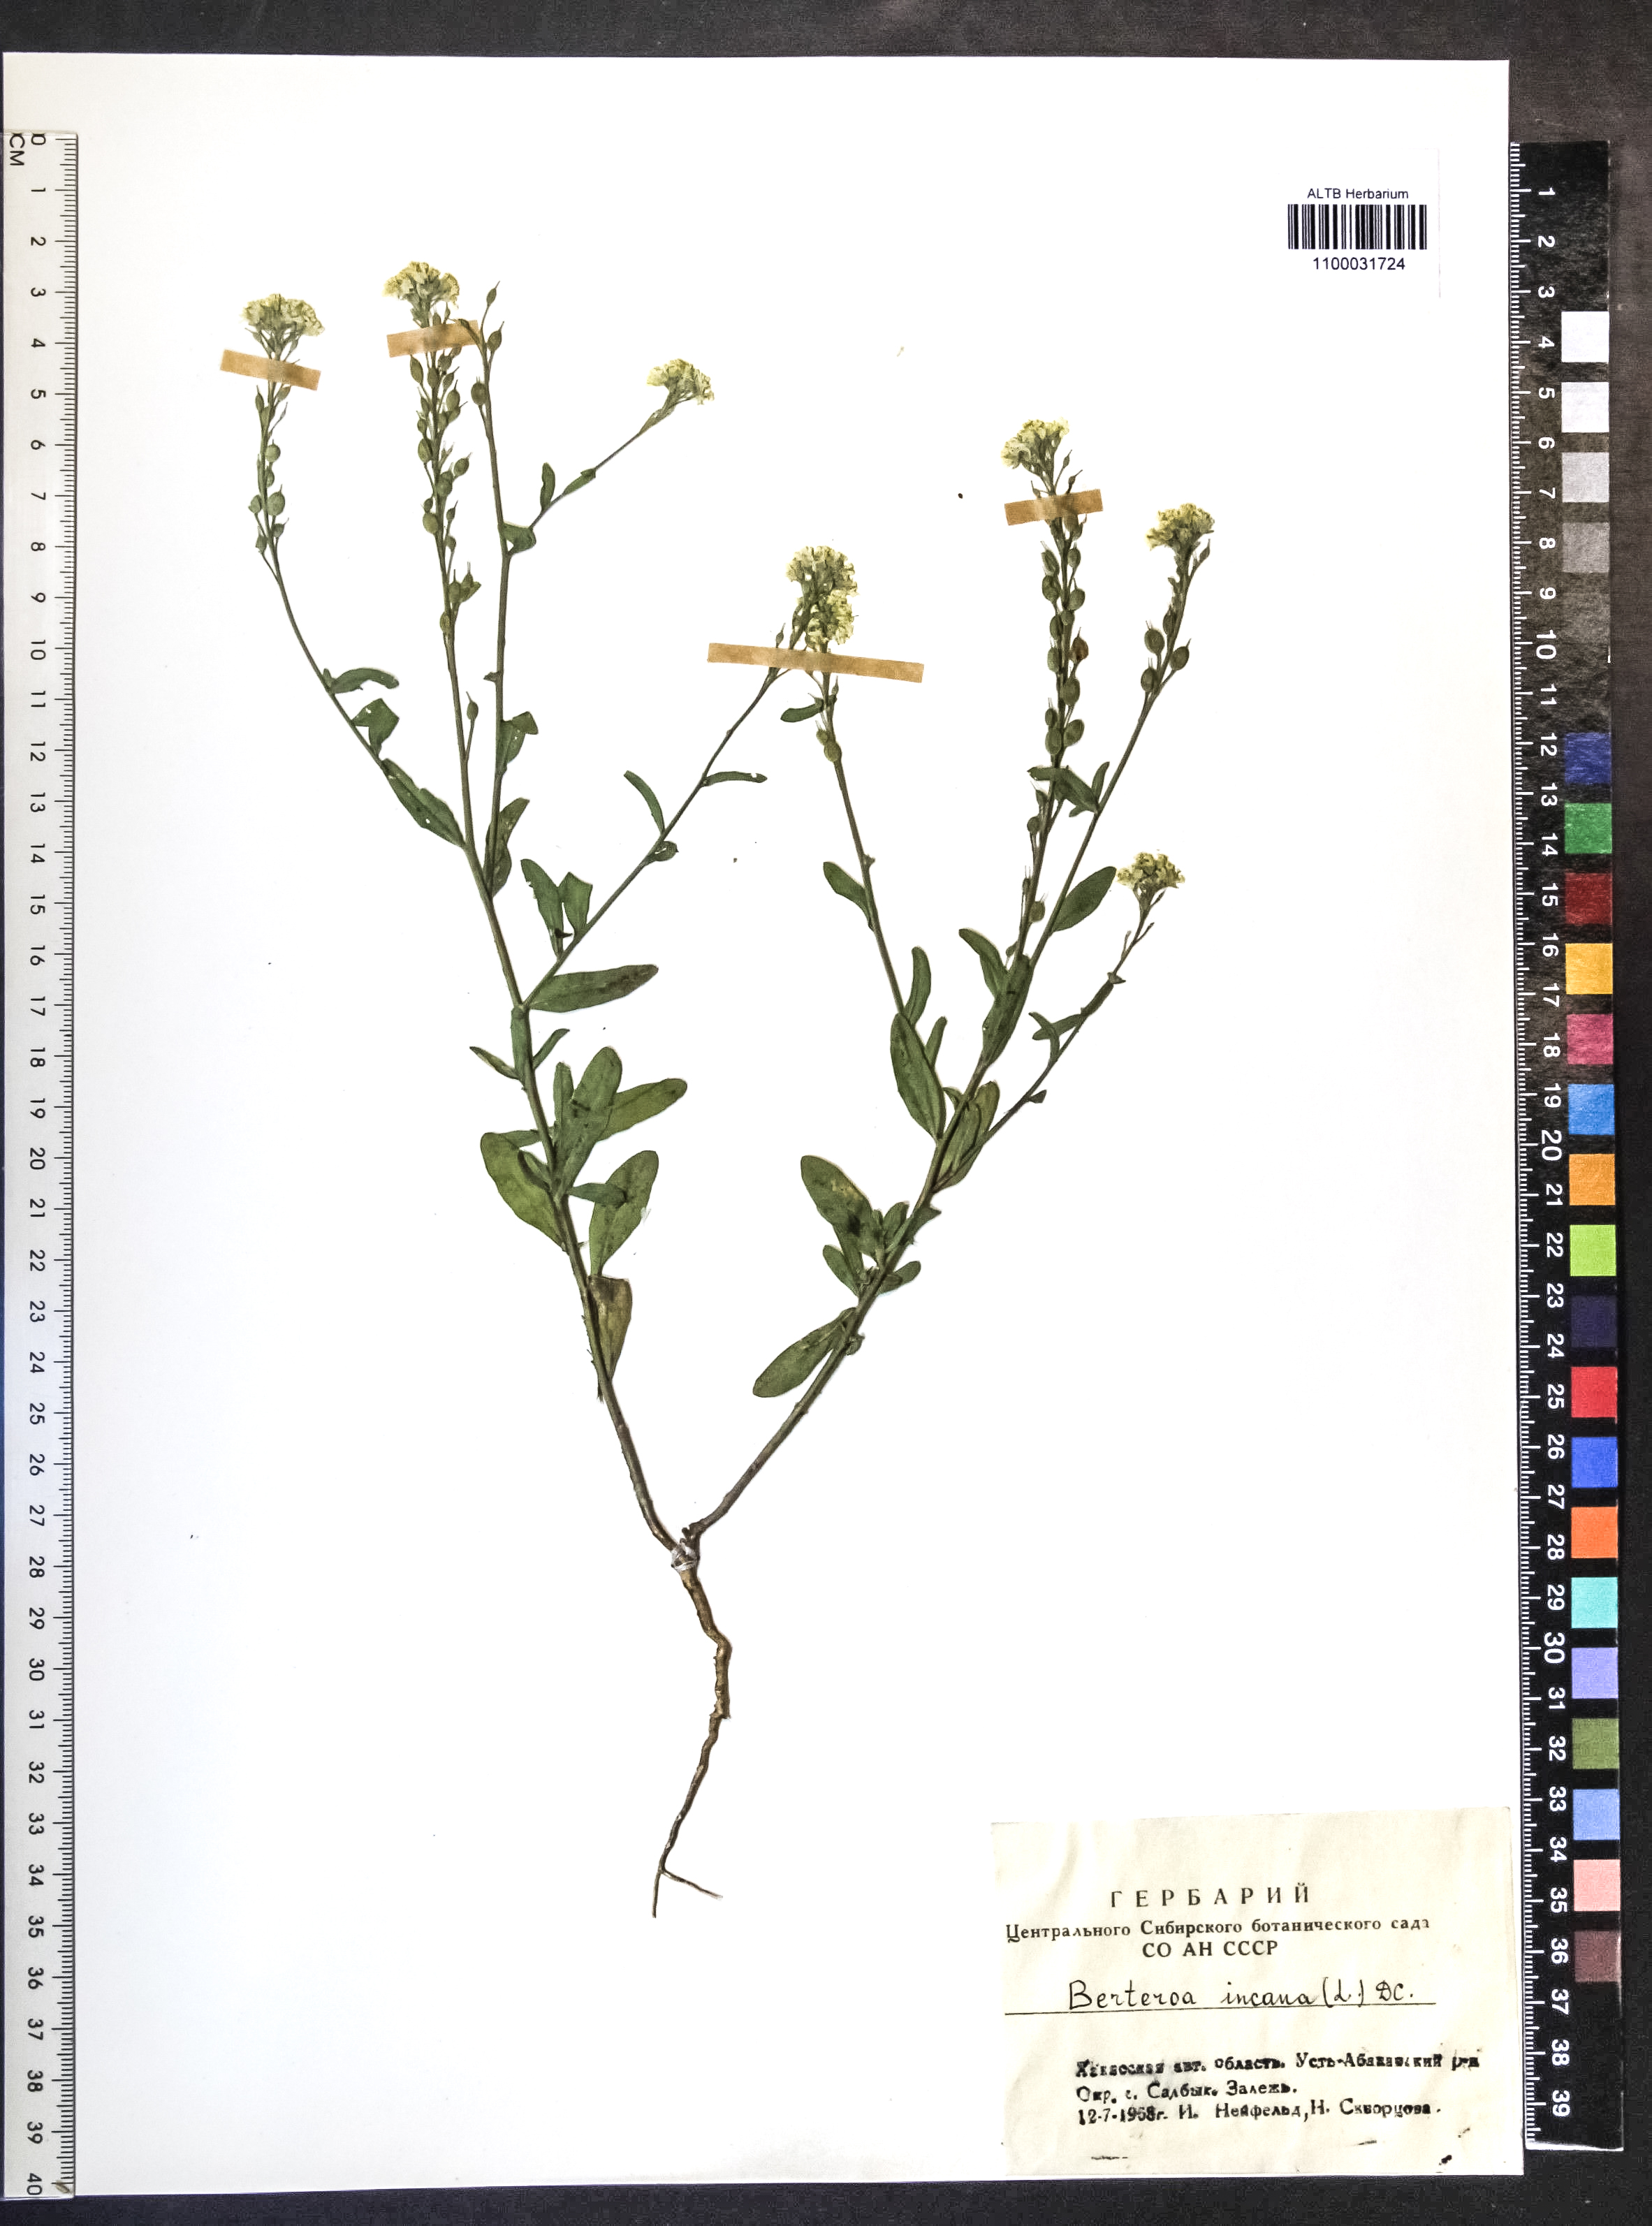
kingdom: Plantae
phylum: Tracheophyta
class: Magnoliopsida
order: Brassicales
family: Brassicaceae
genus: Berteroa
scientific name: Berteroa incana
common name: Hoary alison
